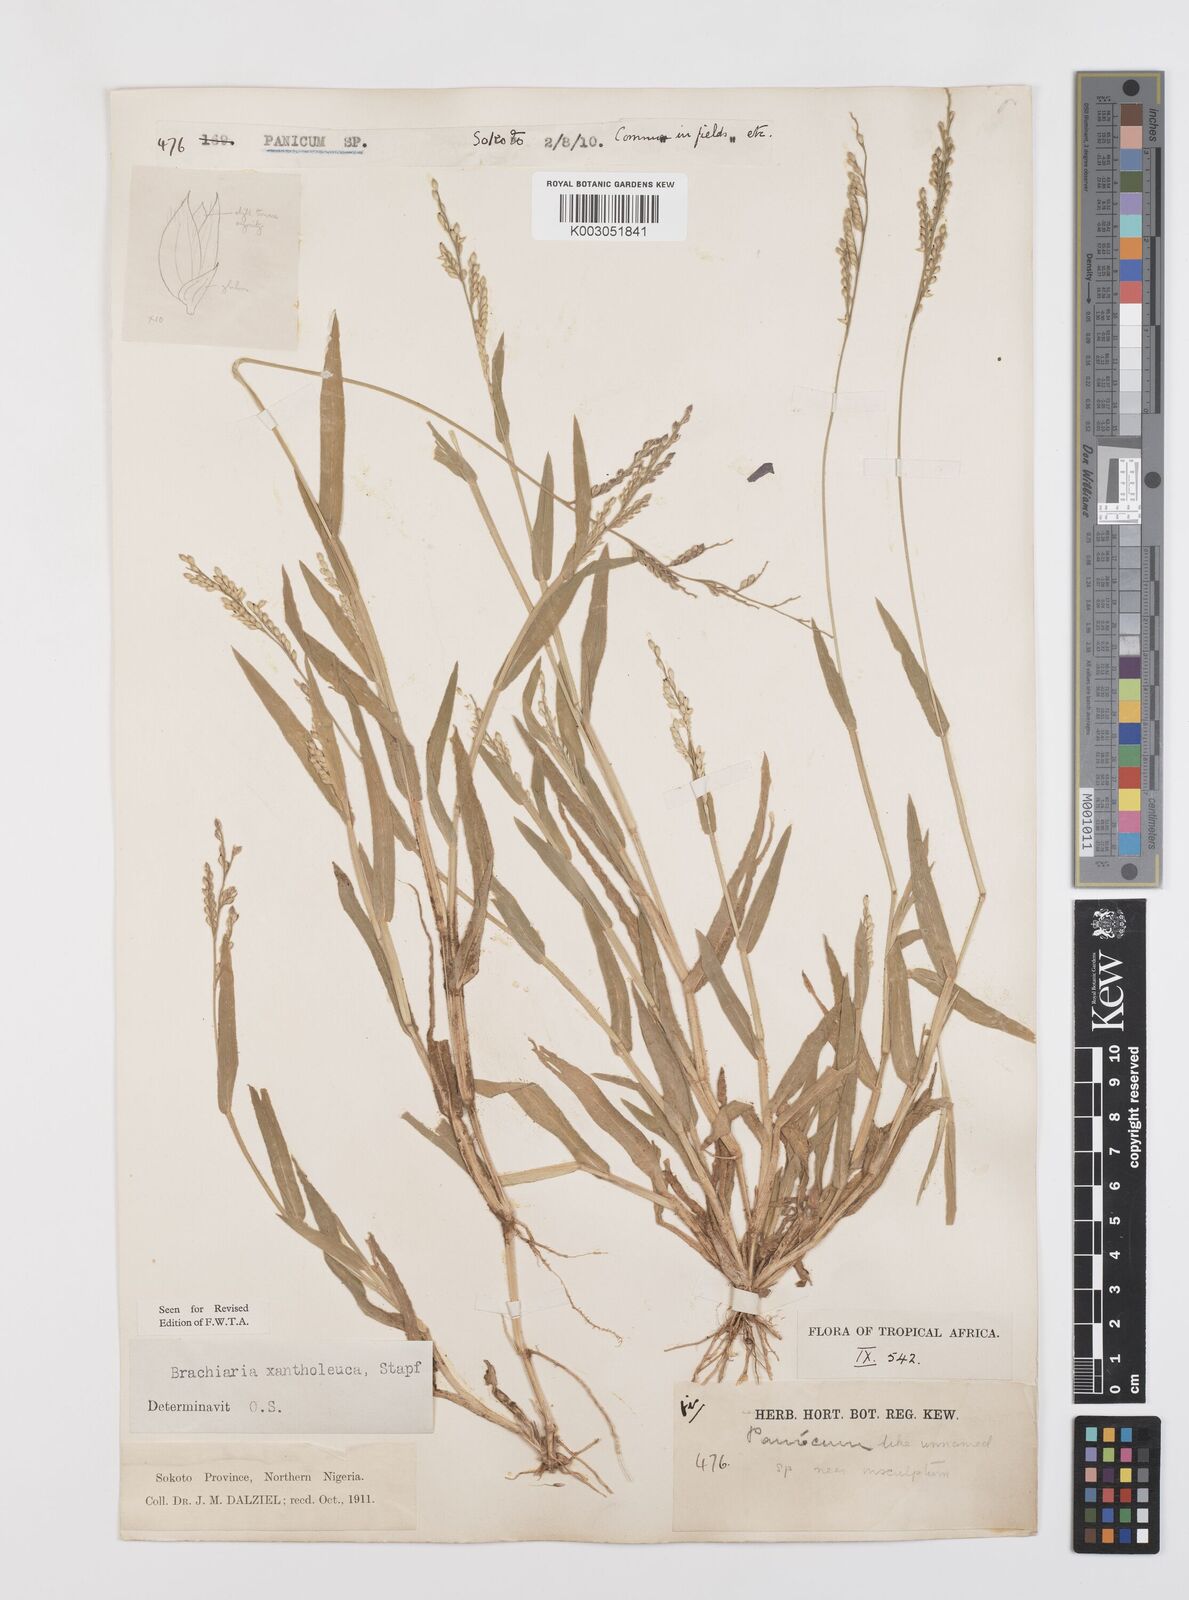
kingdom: Plantae
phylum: Tracheophyta
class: Liliopsida
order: Poales
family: Poaceae
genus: Urochloa
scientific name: Urochloa xantholeuca
